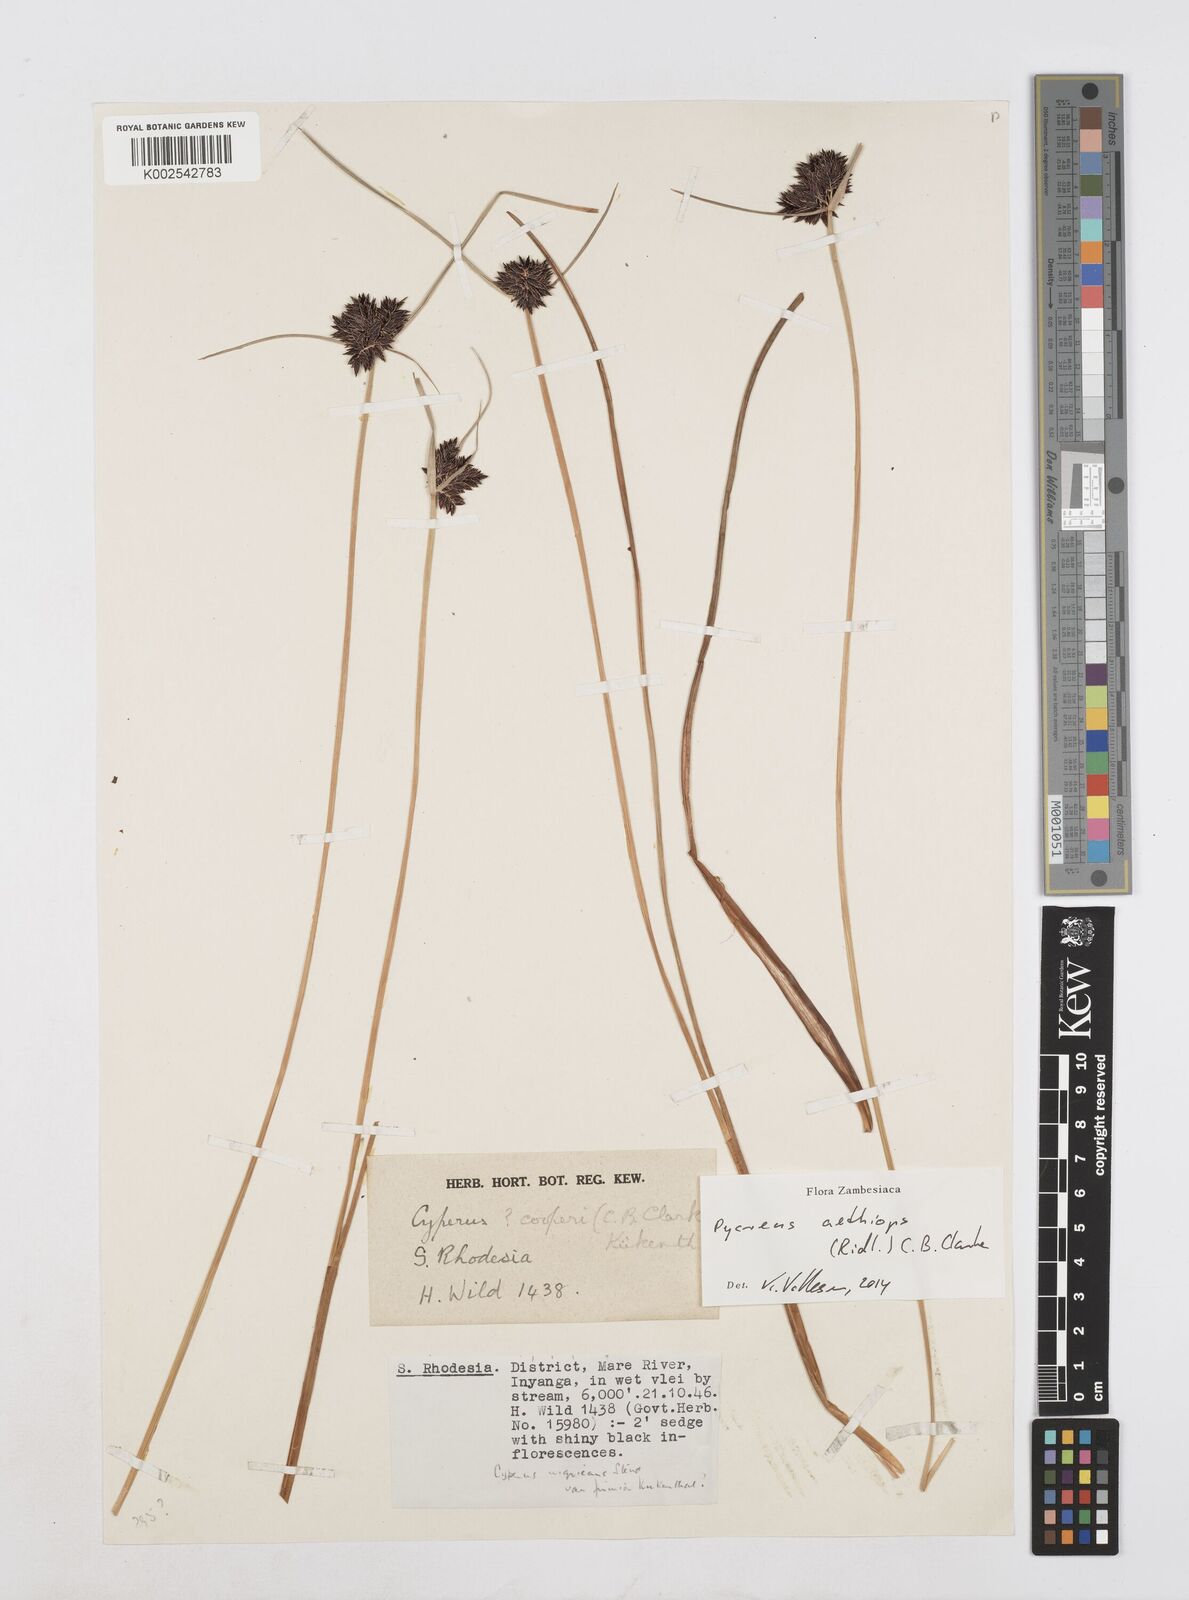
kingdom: Plantae
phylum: Tracheophyta
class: Liliopsida
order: Poales
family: Cyperaceae
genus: Cyperus
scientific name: Cyperus aethiops
